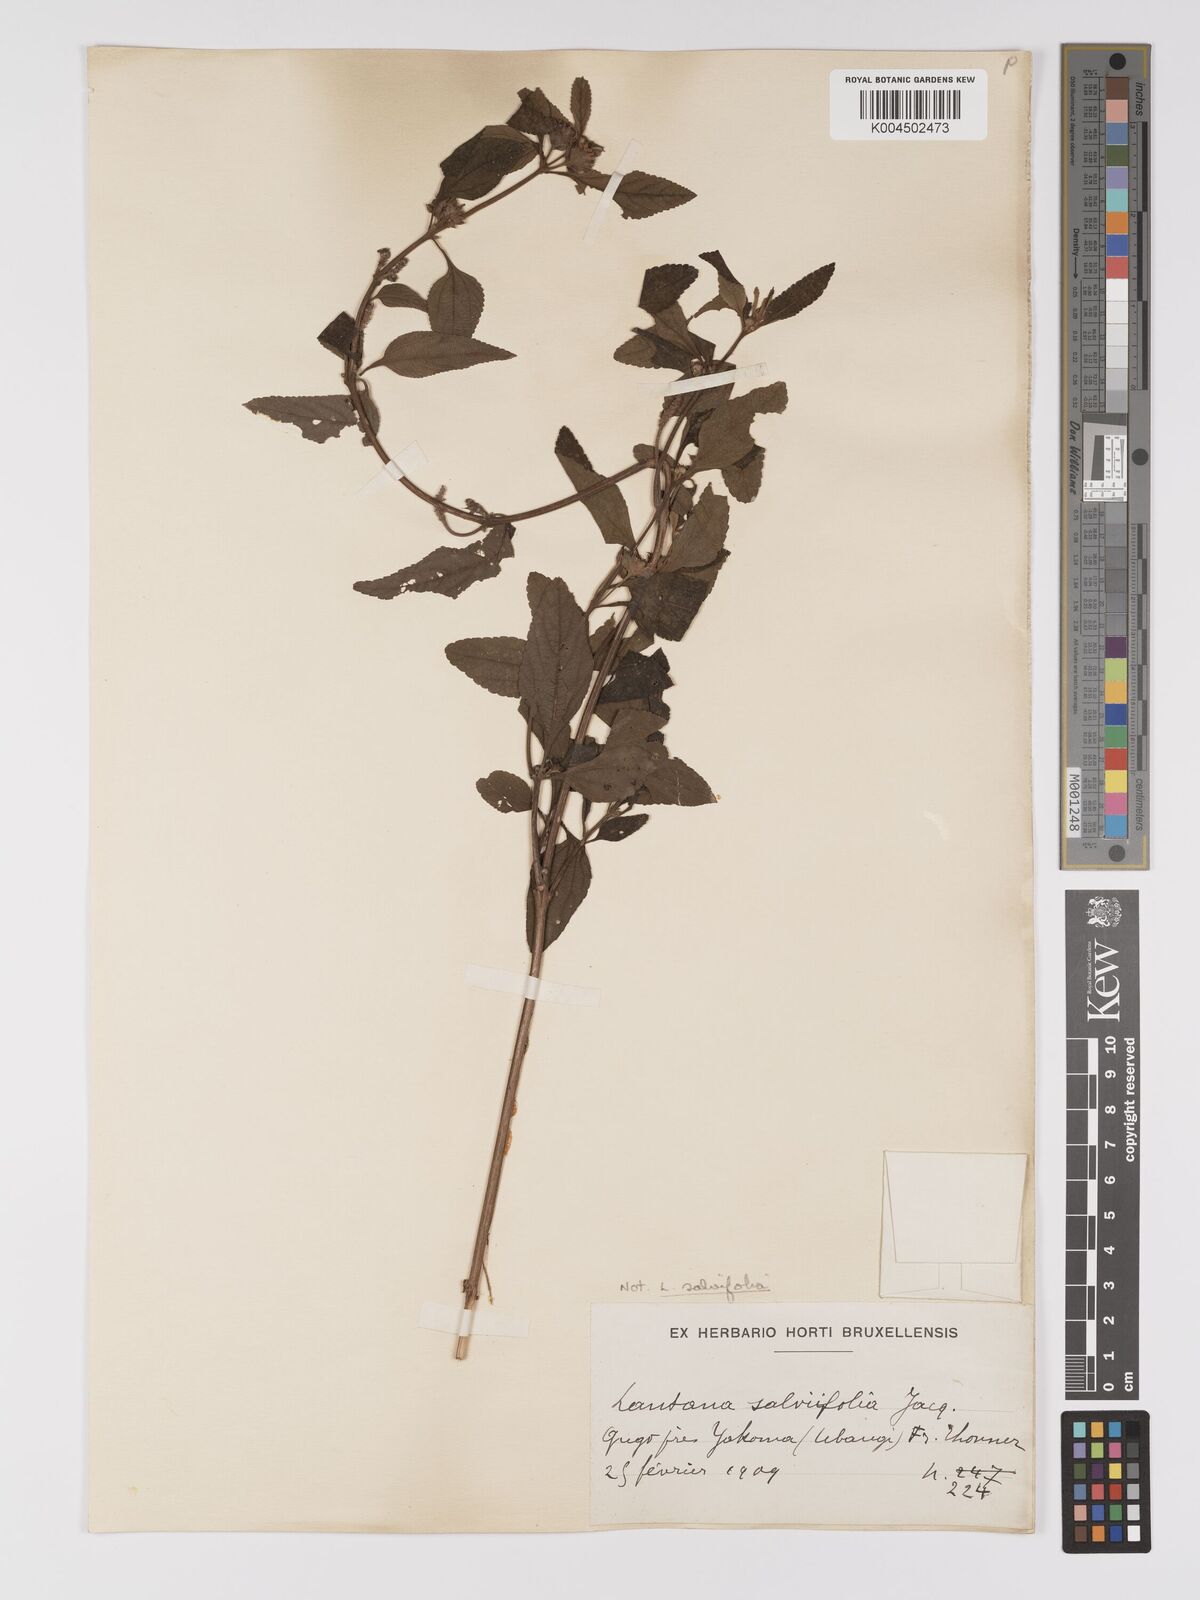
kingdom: Plantae
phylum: Tracheophyta
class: Magnoliopsida
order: Lamiales
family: Verbenaceae
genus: Lantana
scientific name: Lantana
